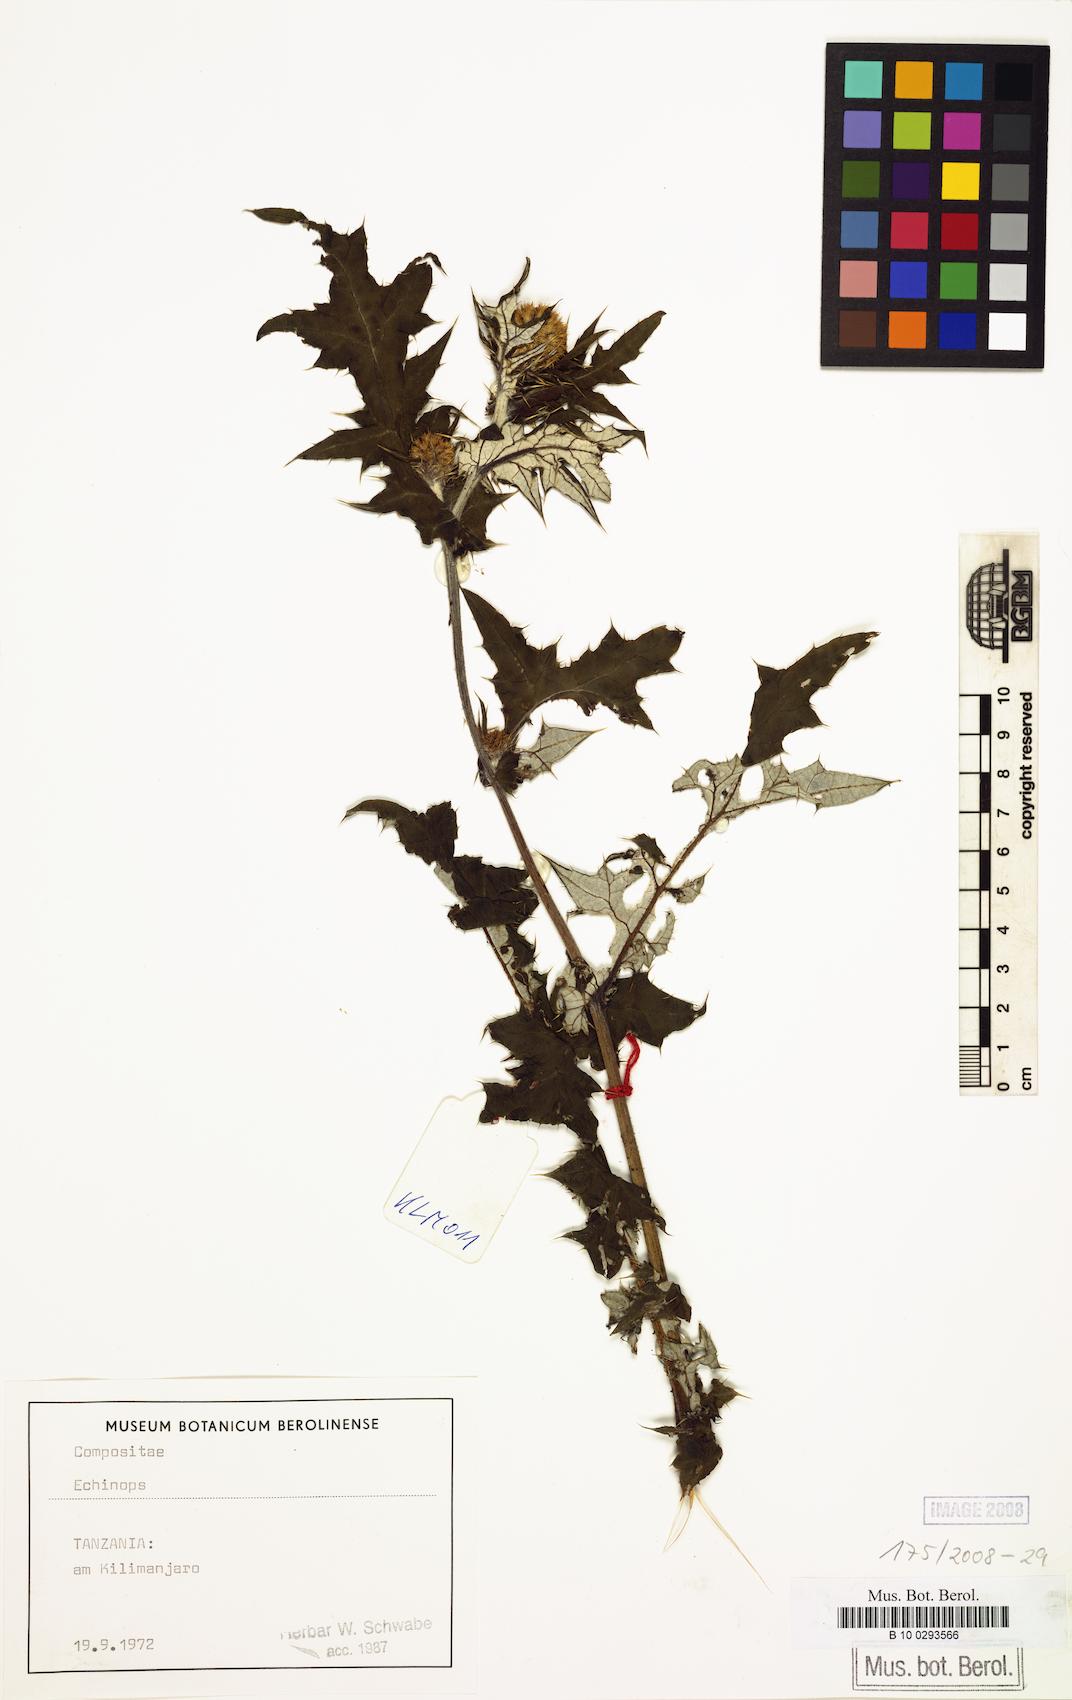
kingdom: Plantae
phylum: Tracheophyta
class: Magnoliopsida
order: Asterales
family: Asteraceae
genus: Echinops
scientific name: Echinops
